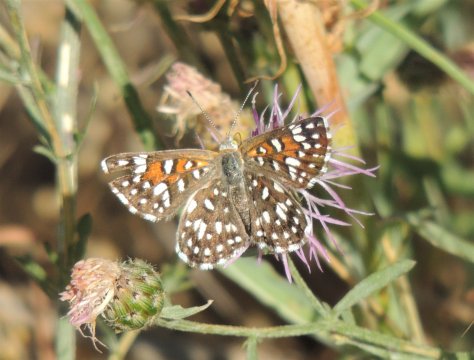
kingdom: Animalia
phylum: Arthropoda
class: Insecta
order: Lepidoptera
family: Riodinidae
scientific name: Riodinidae
